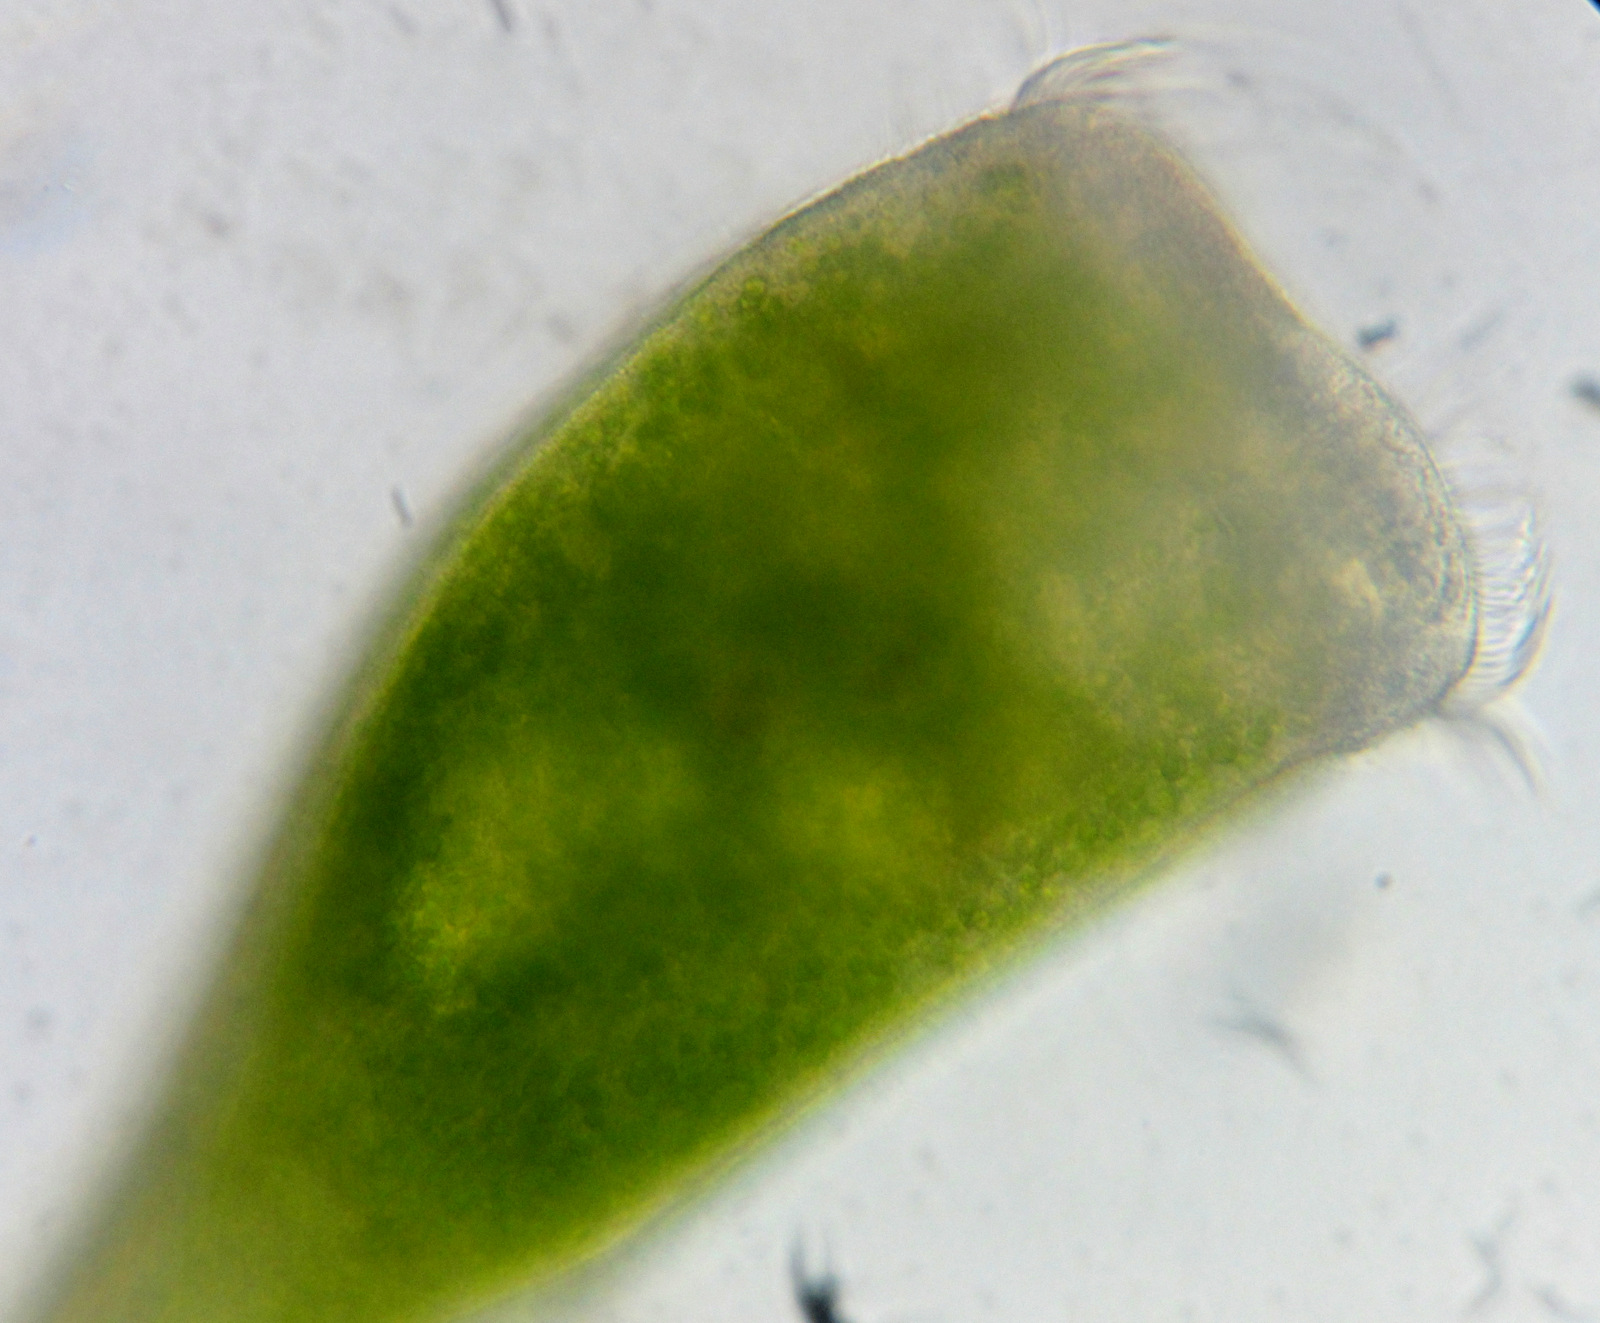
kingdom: Chromista
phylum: Ciliophora
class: Heterotrichea
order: Heterotrichida
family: Stentoridae
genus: Stentor
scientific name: Stentor polymorphus
